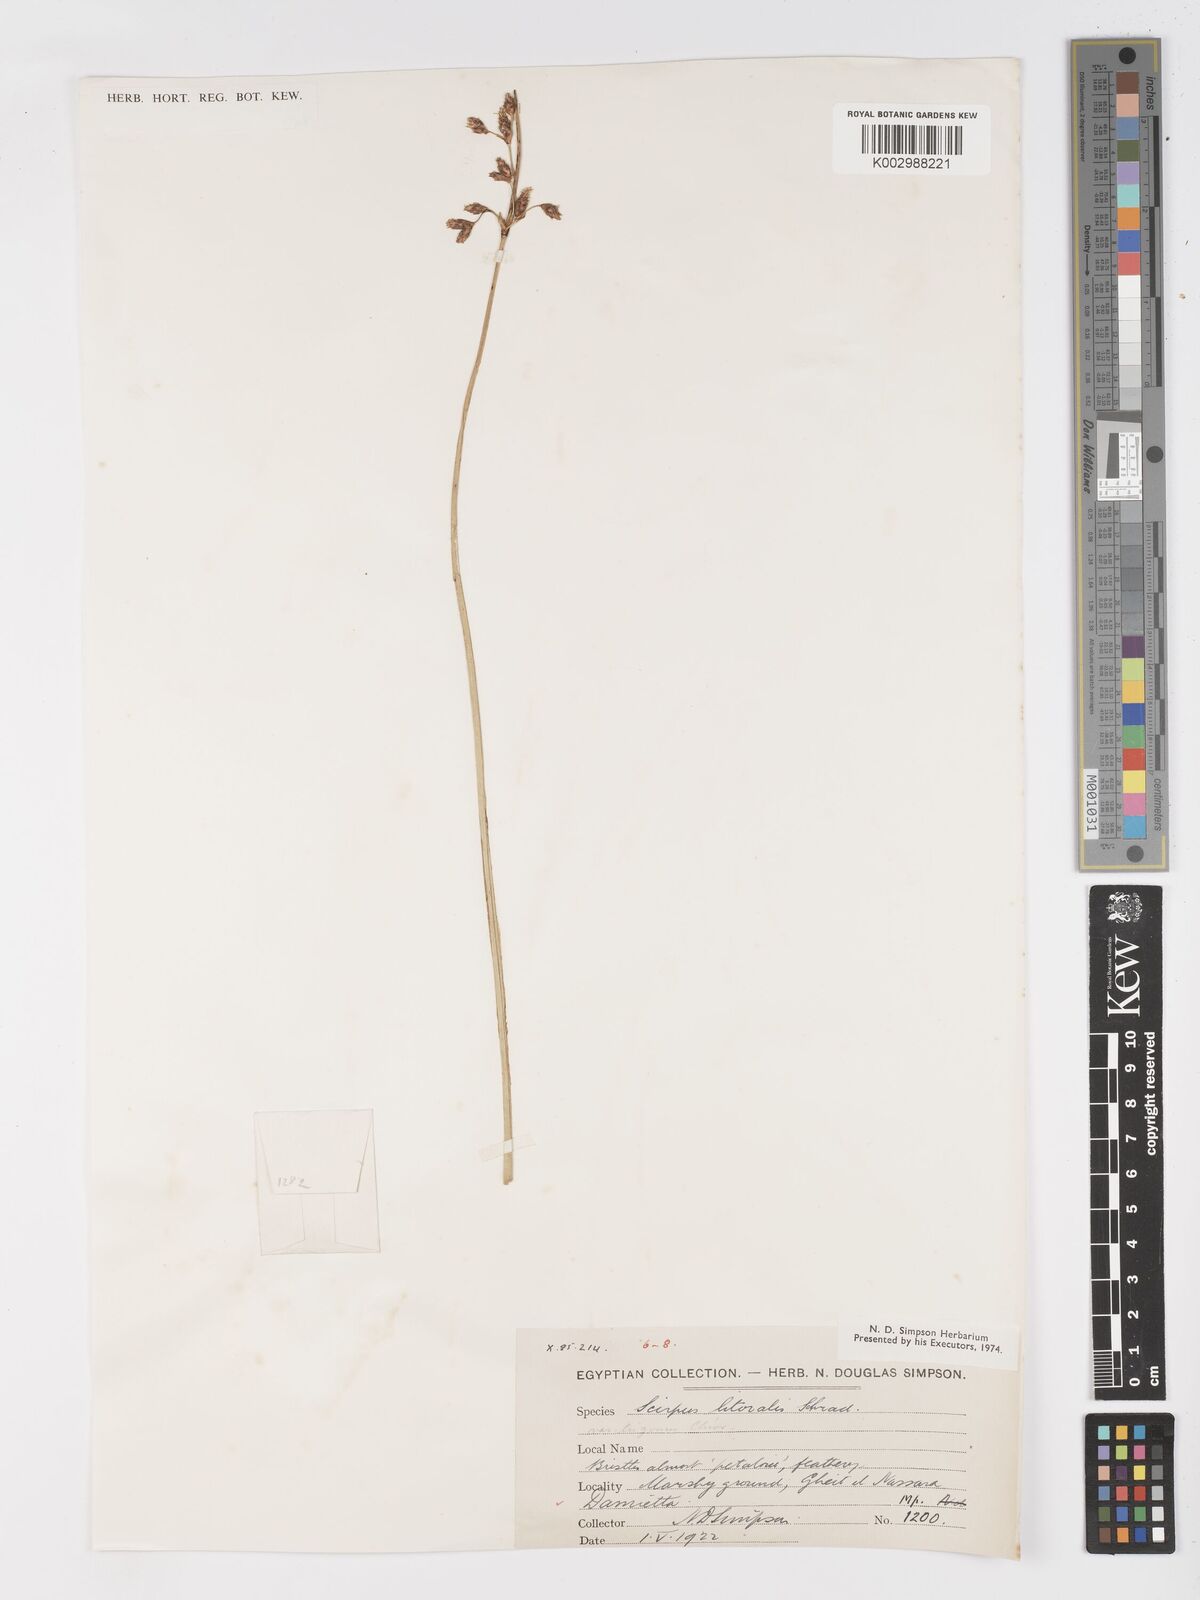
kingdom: Plantae
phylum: Tracheophyta
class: Liliopsida
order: Poales
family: Cyperaceae
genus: Schoenoplectus
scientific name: Schoenoplectus litoralis
